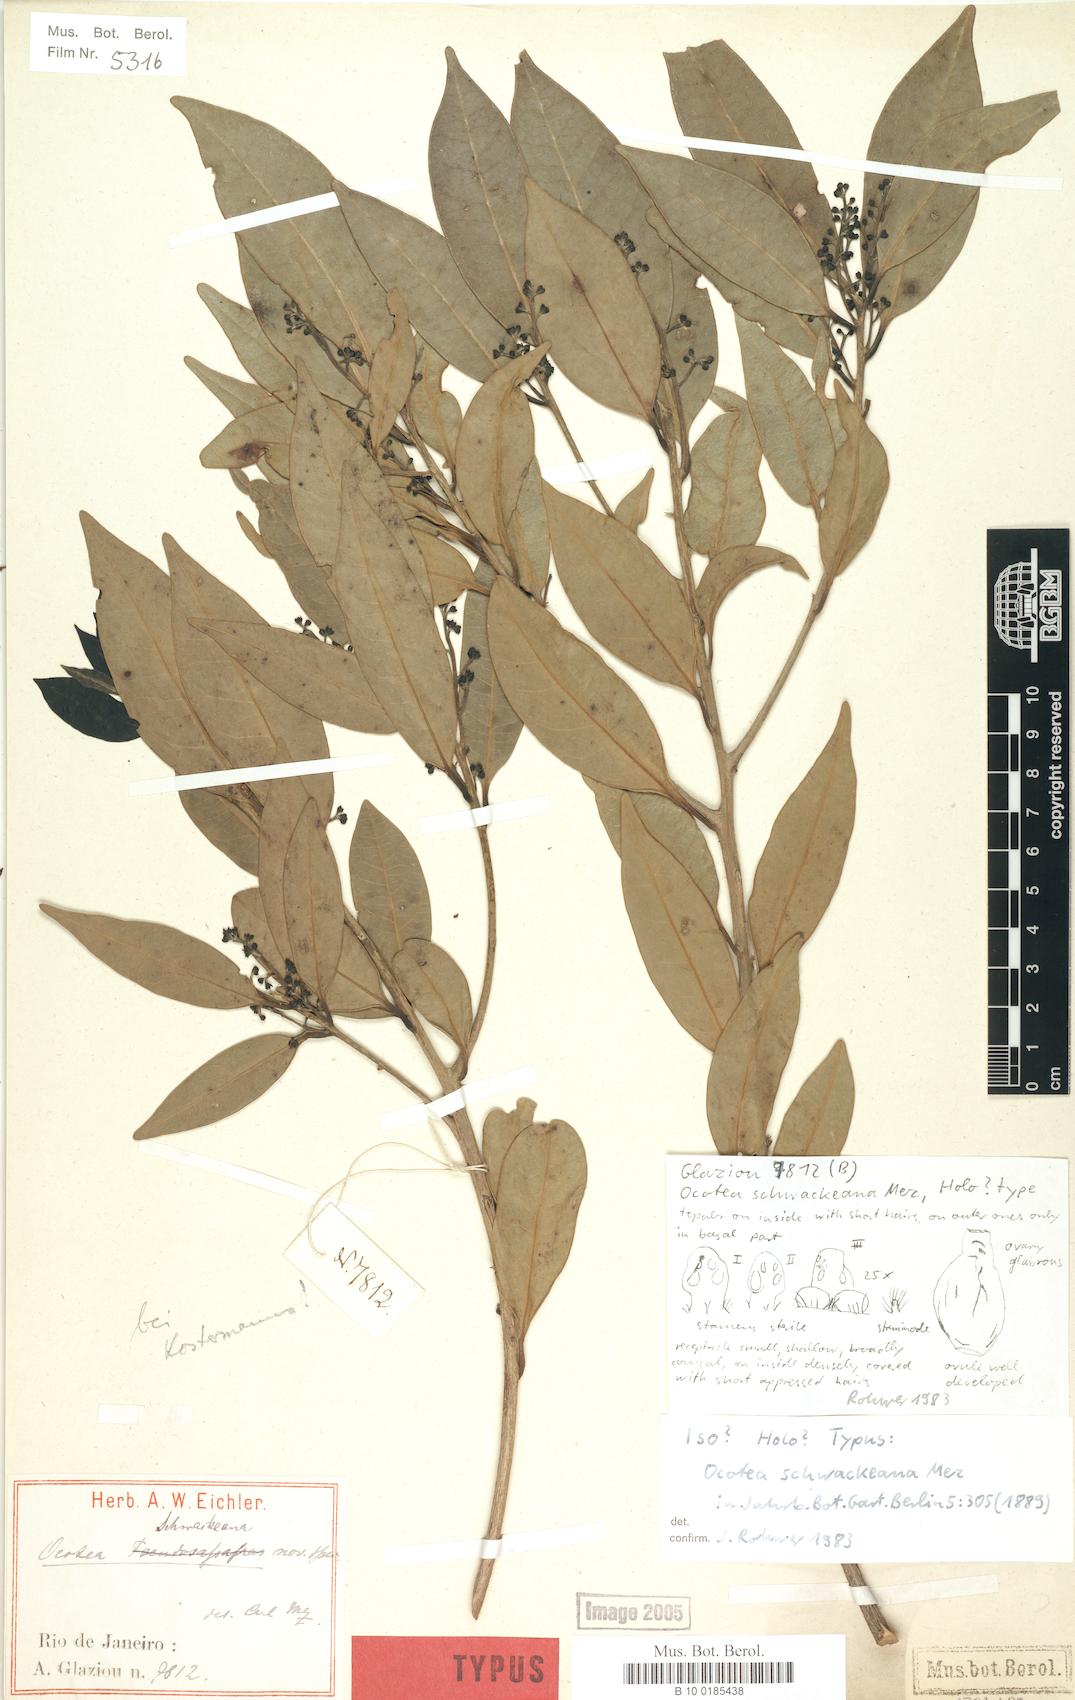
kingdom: Plantae
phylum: Tracheophyta
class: Magnoliopsida
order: Laurales
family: Lauraceae
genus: Ocotea
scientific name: Ocotea schwackeana
